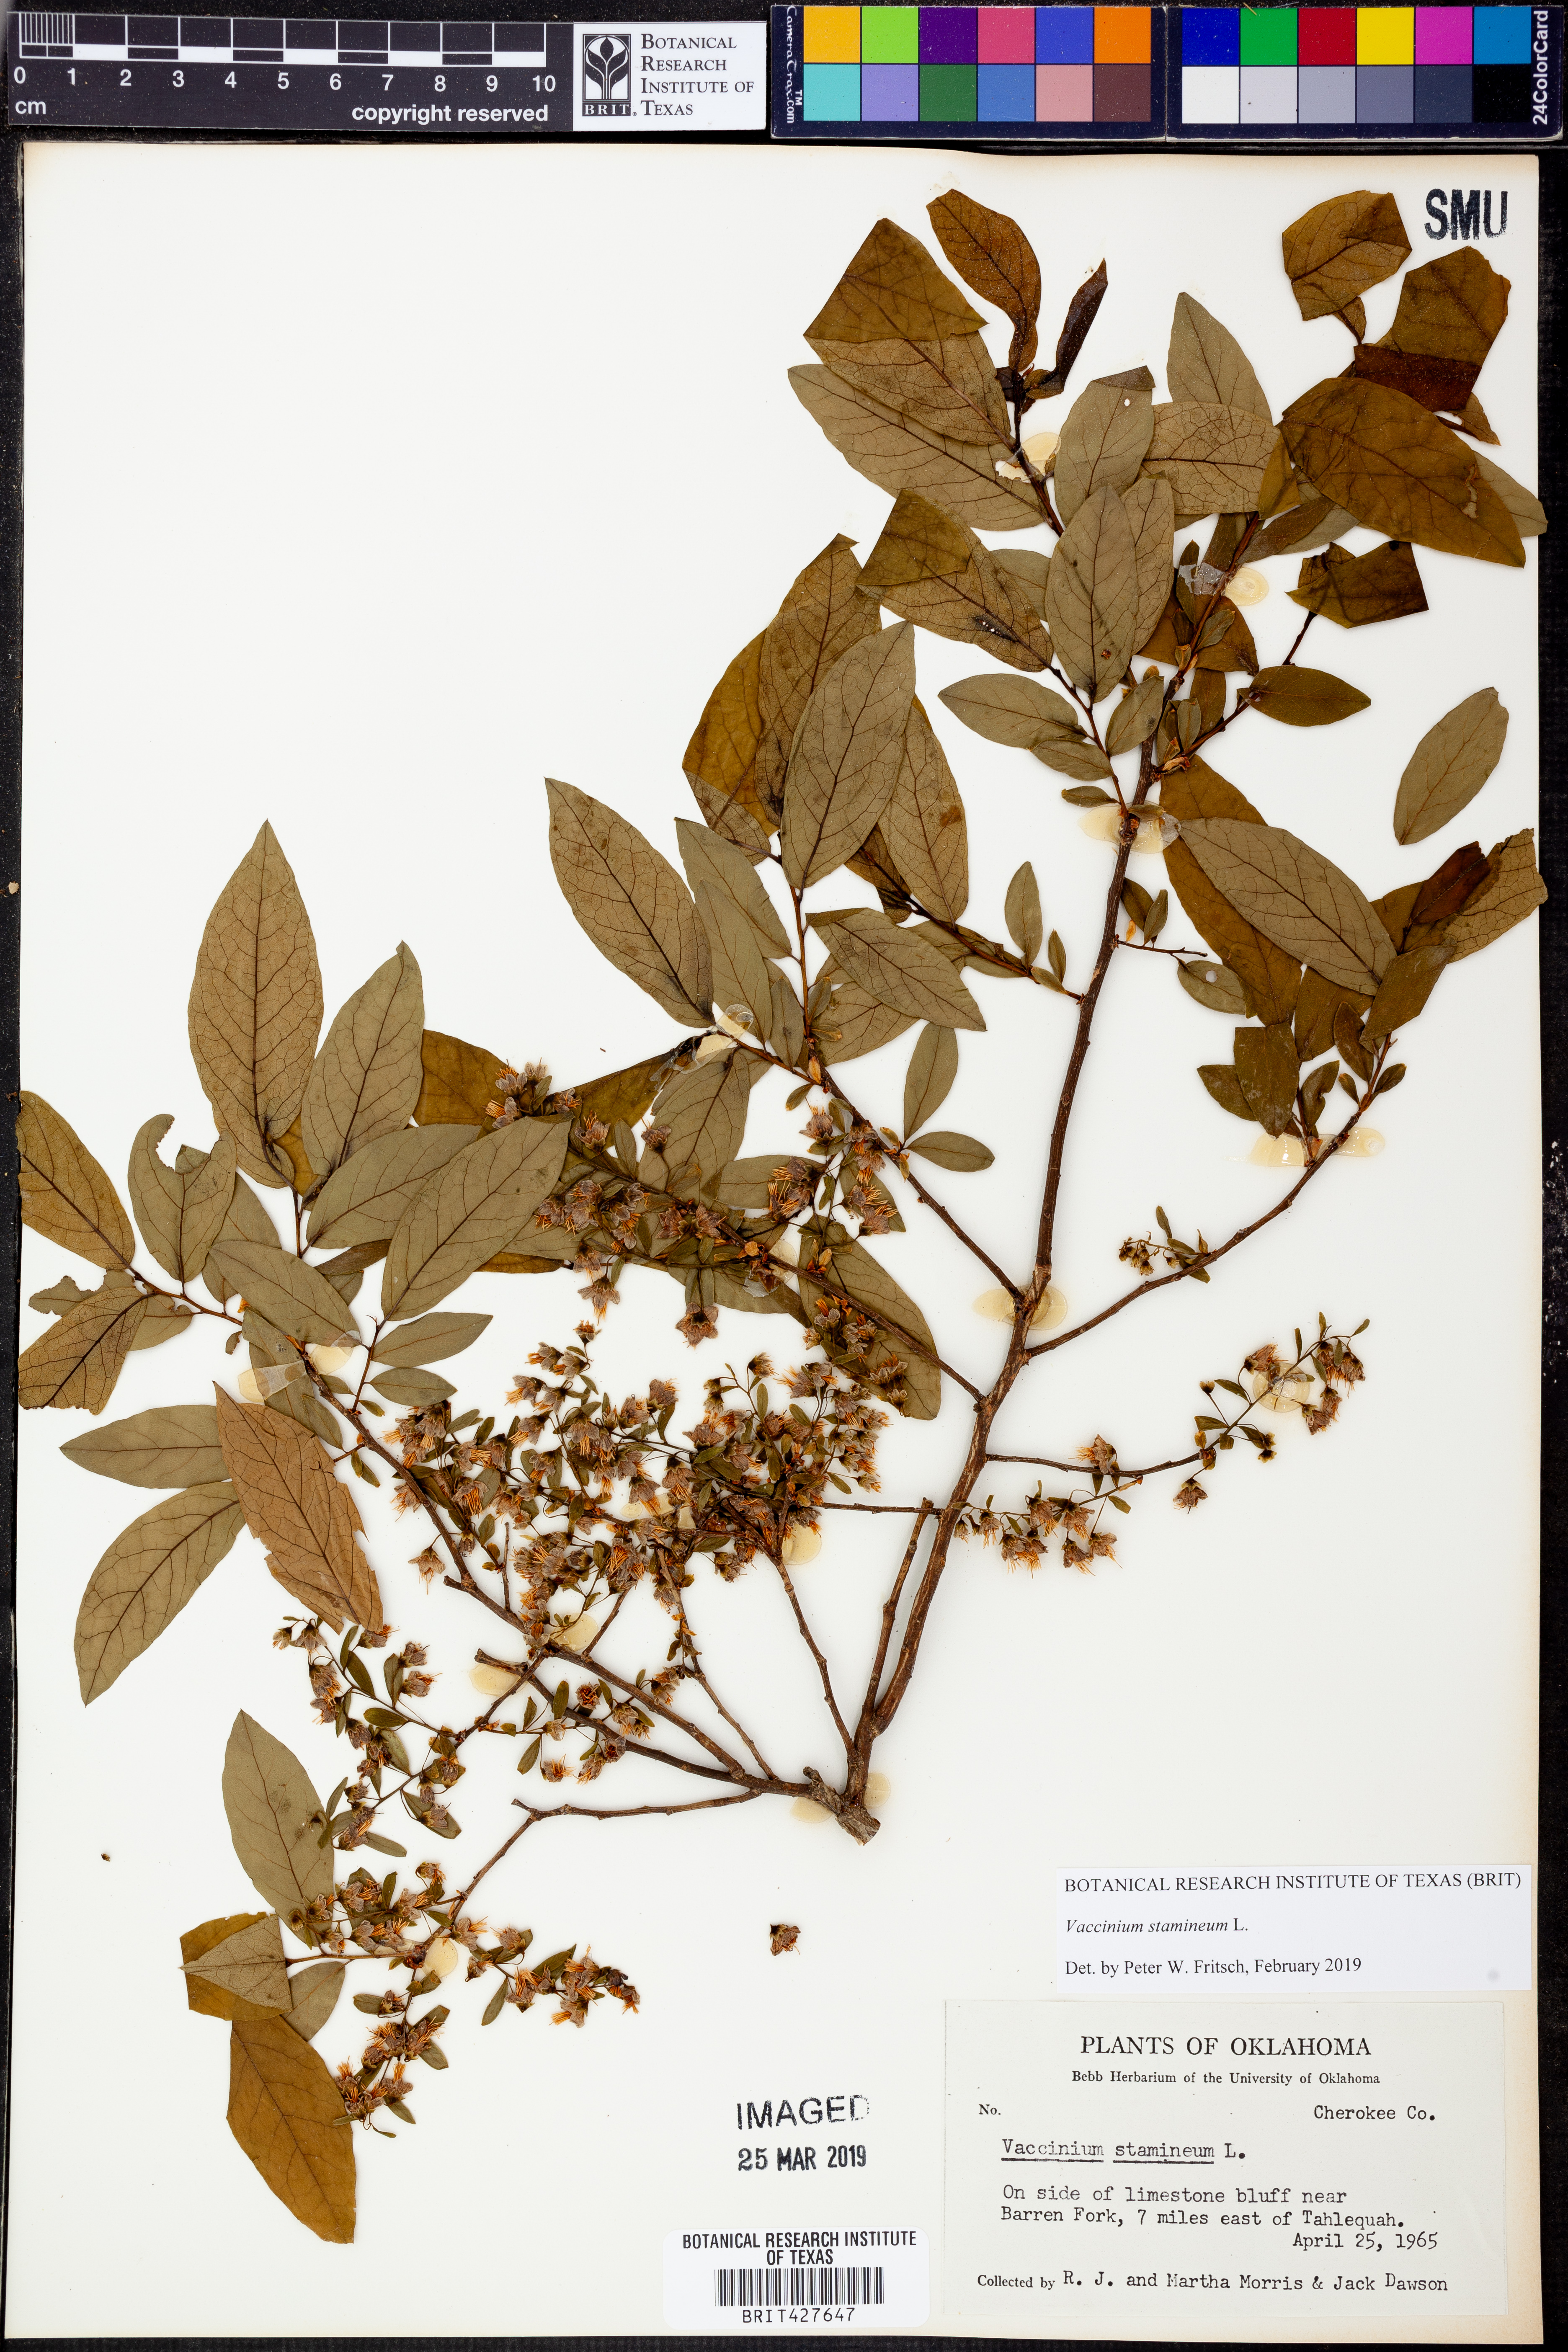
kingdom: Plantae
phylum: Tracheophyta
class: Magnoliopsida
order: Ericales
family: Ericaceae
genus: Vaccinium
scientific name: Vaccinium stamineum
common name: Deerberry
